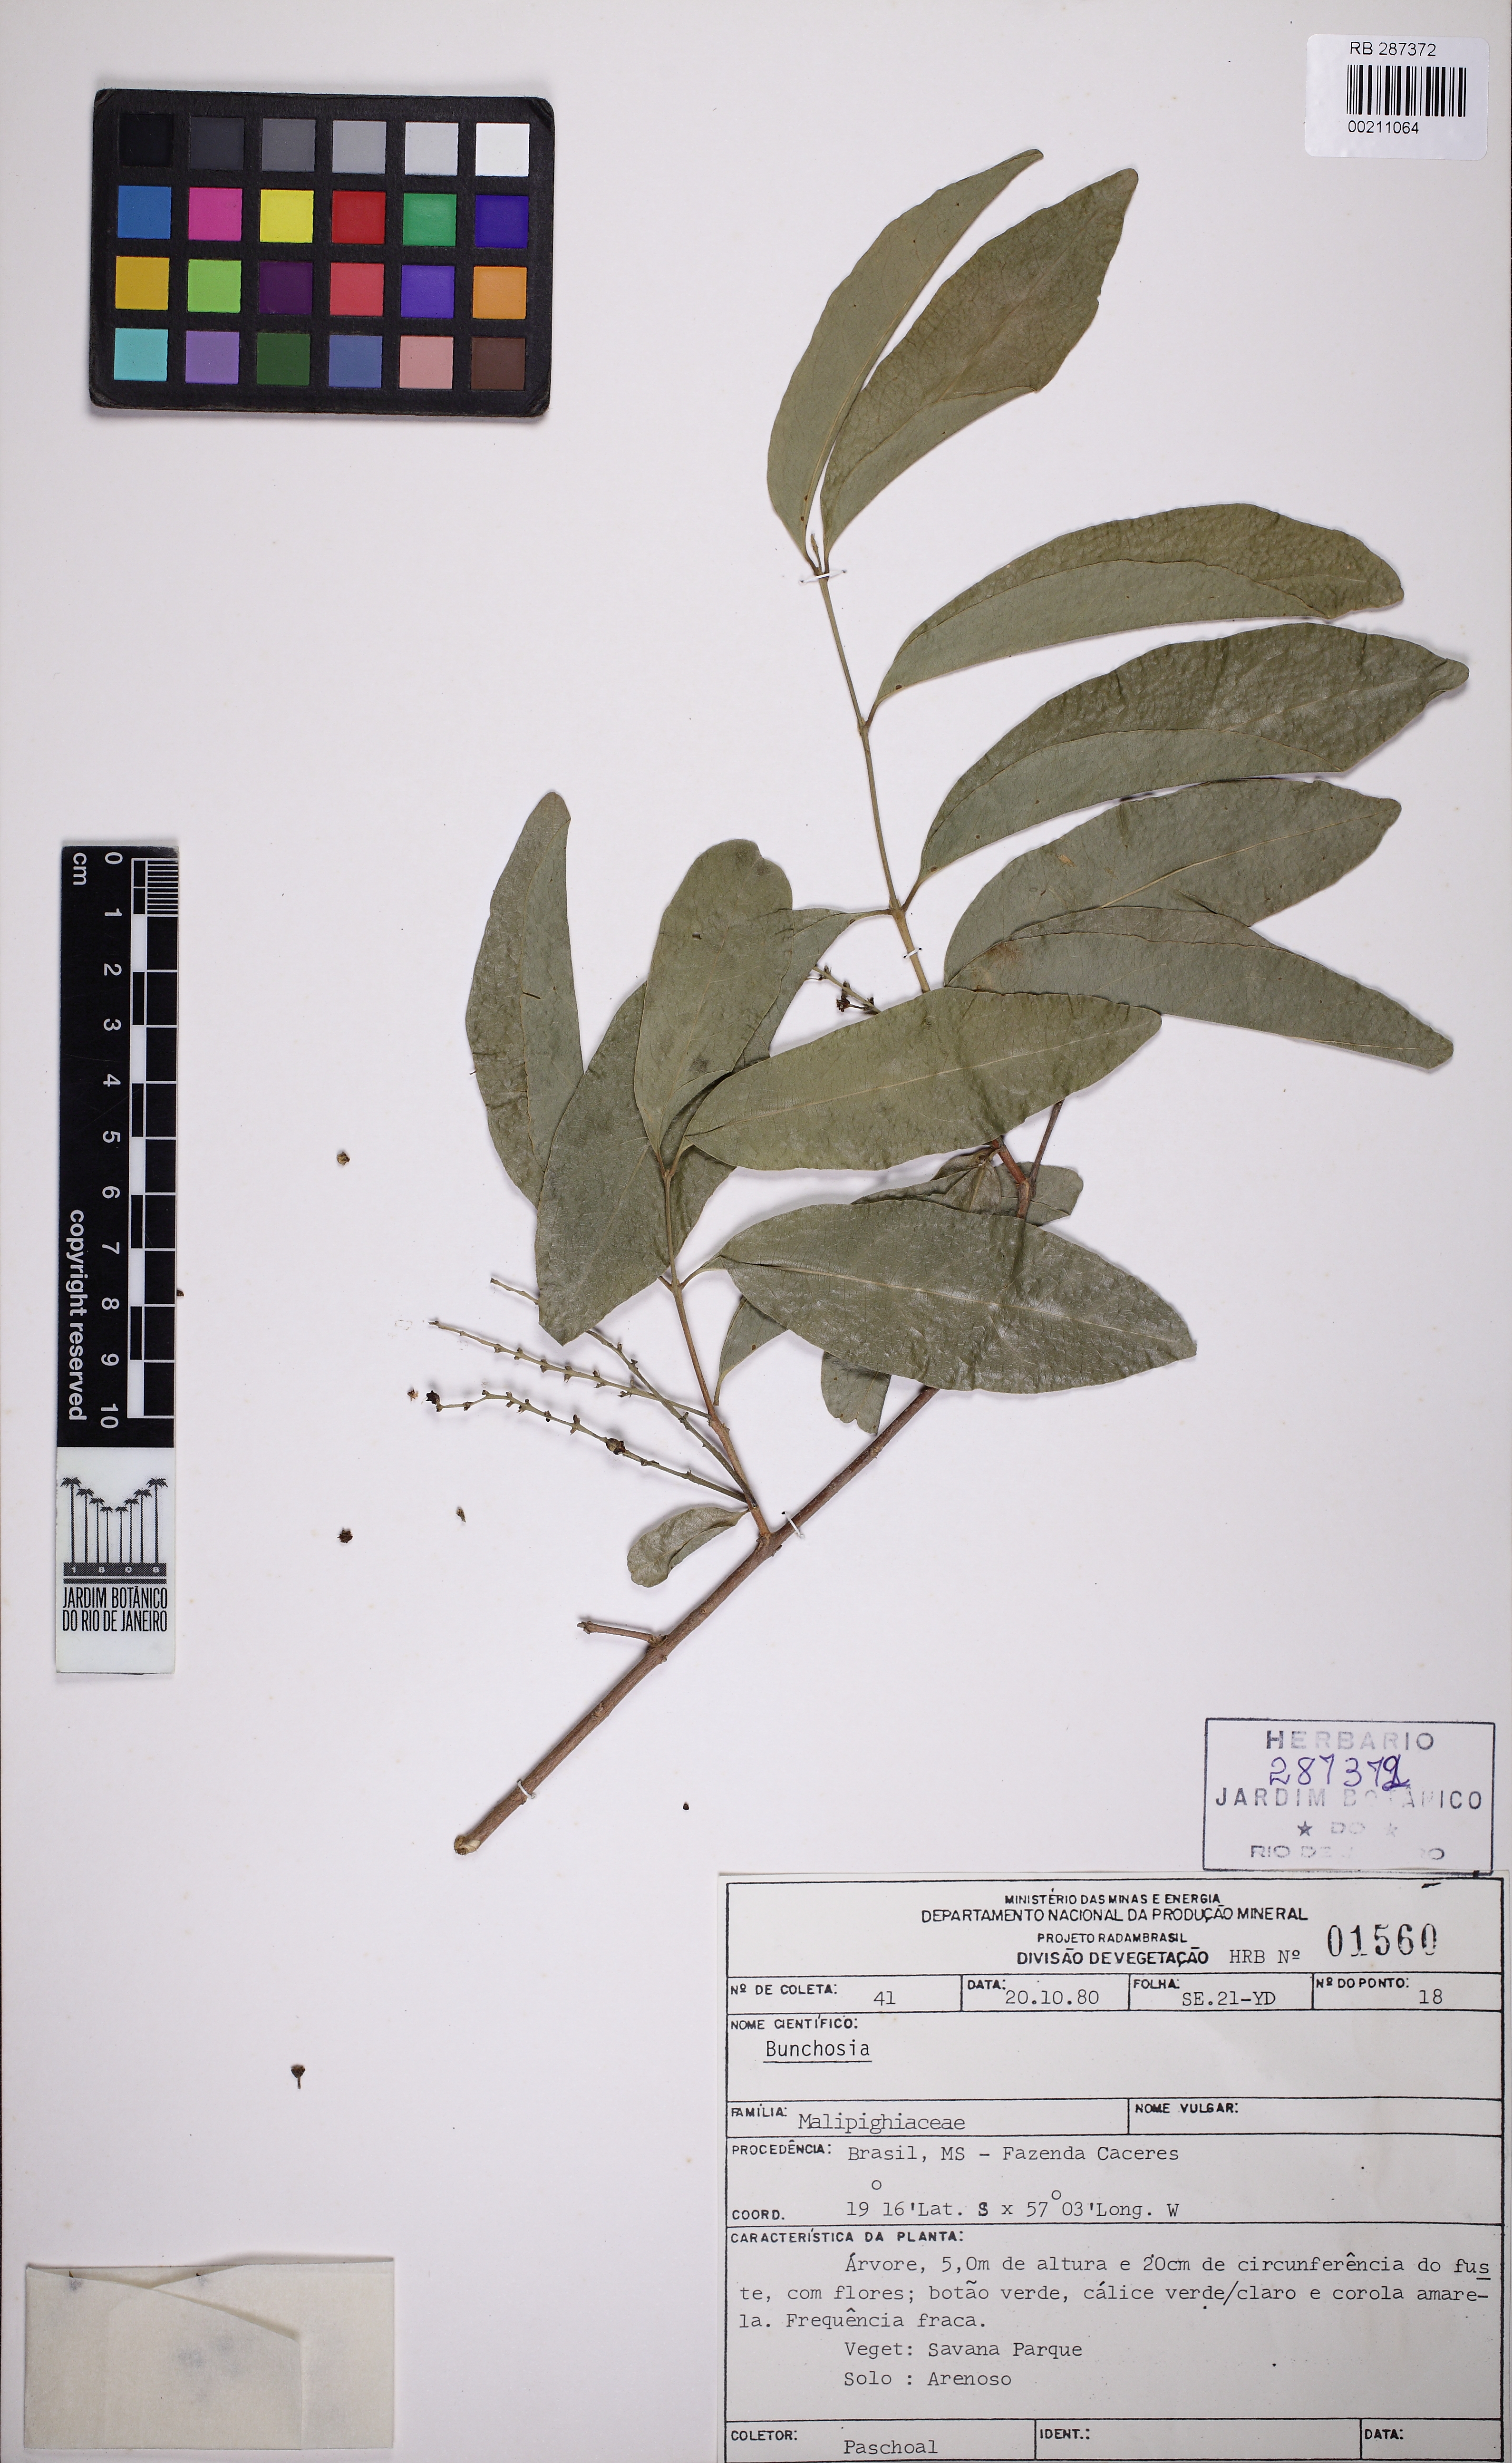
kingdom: Plantae
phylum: Tracheophyta
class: Magnoliopsida
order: Malpighiales
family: Malpighiaceae
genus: Bunchosia
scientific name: Bunchosia
